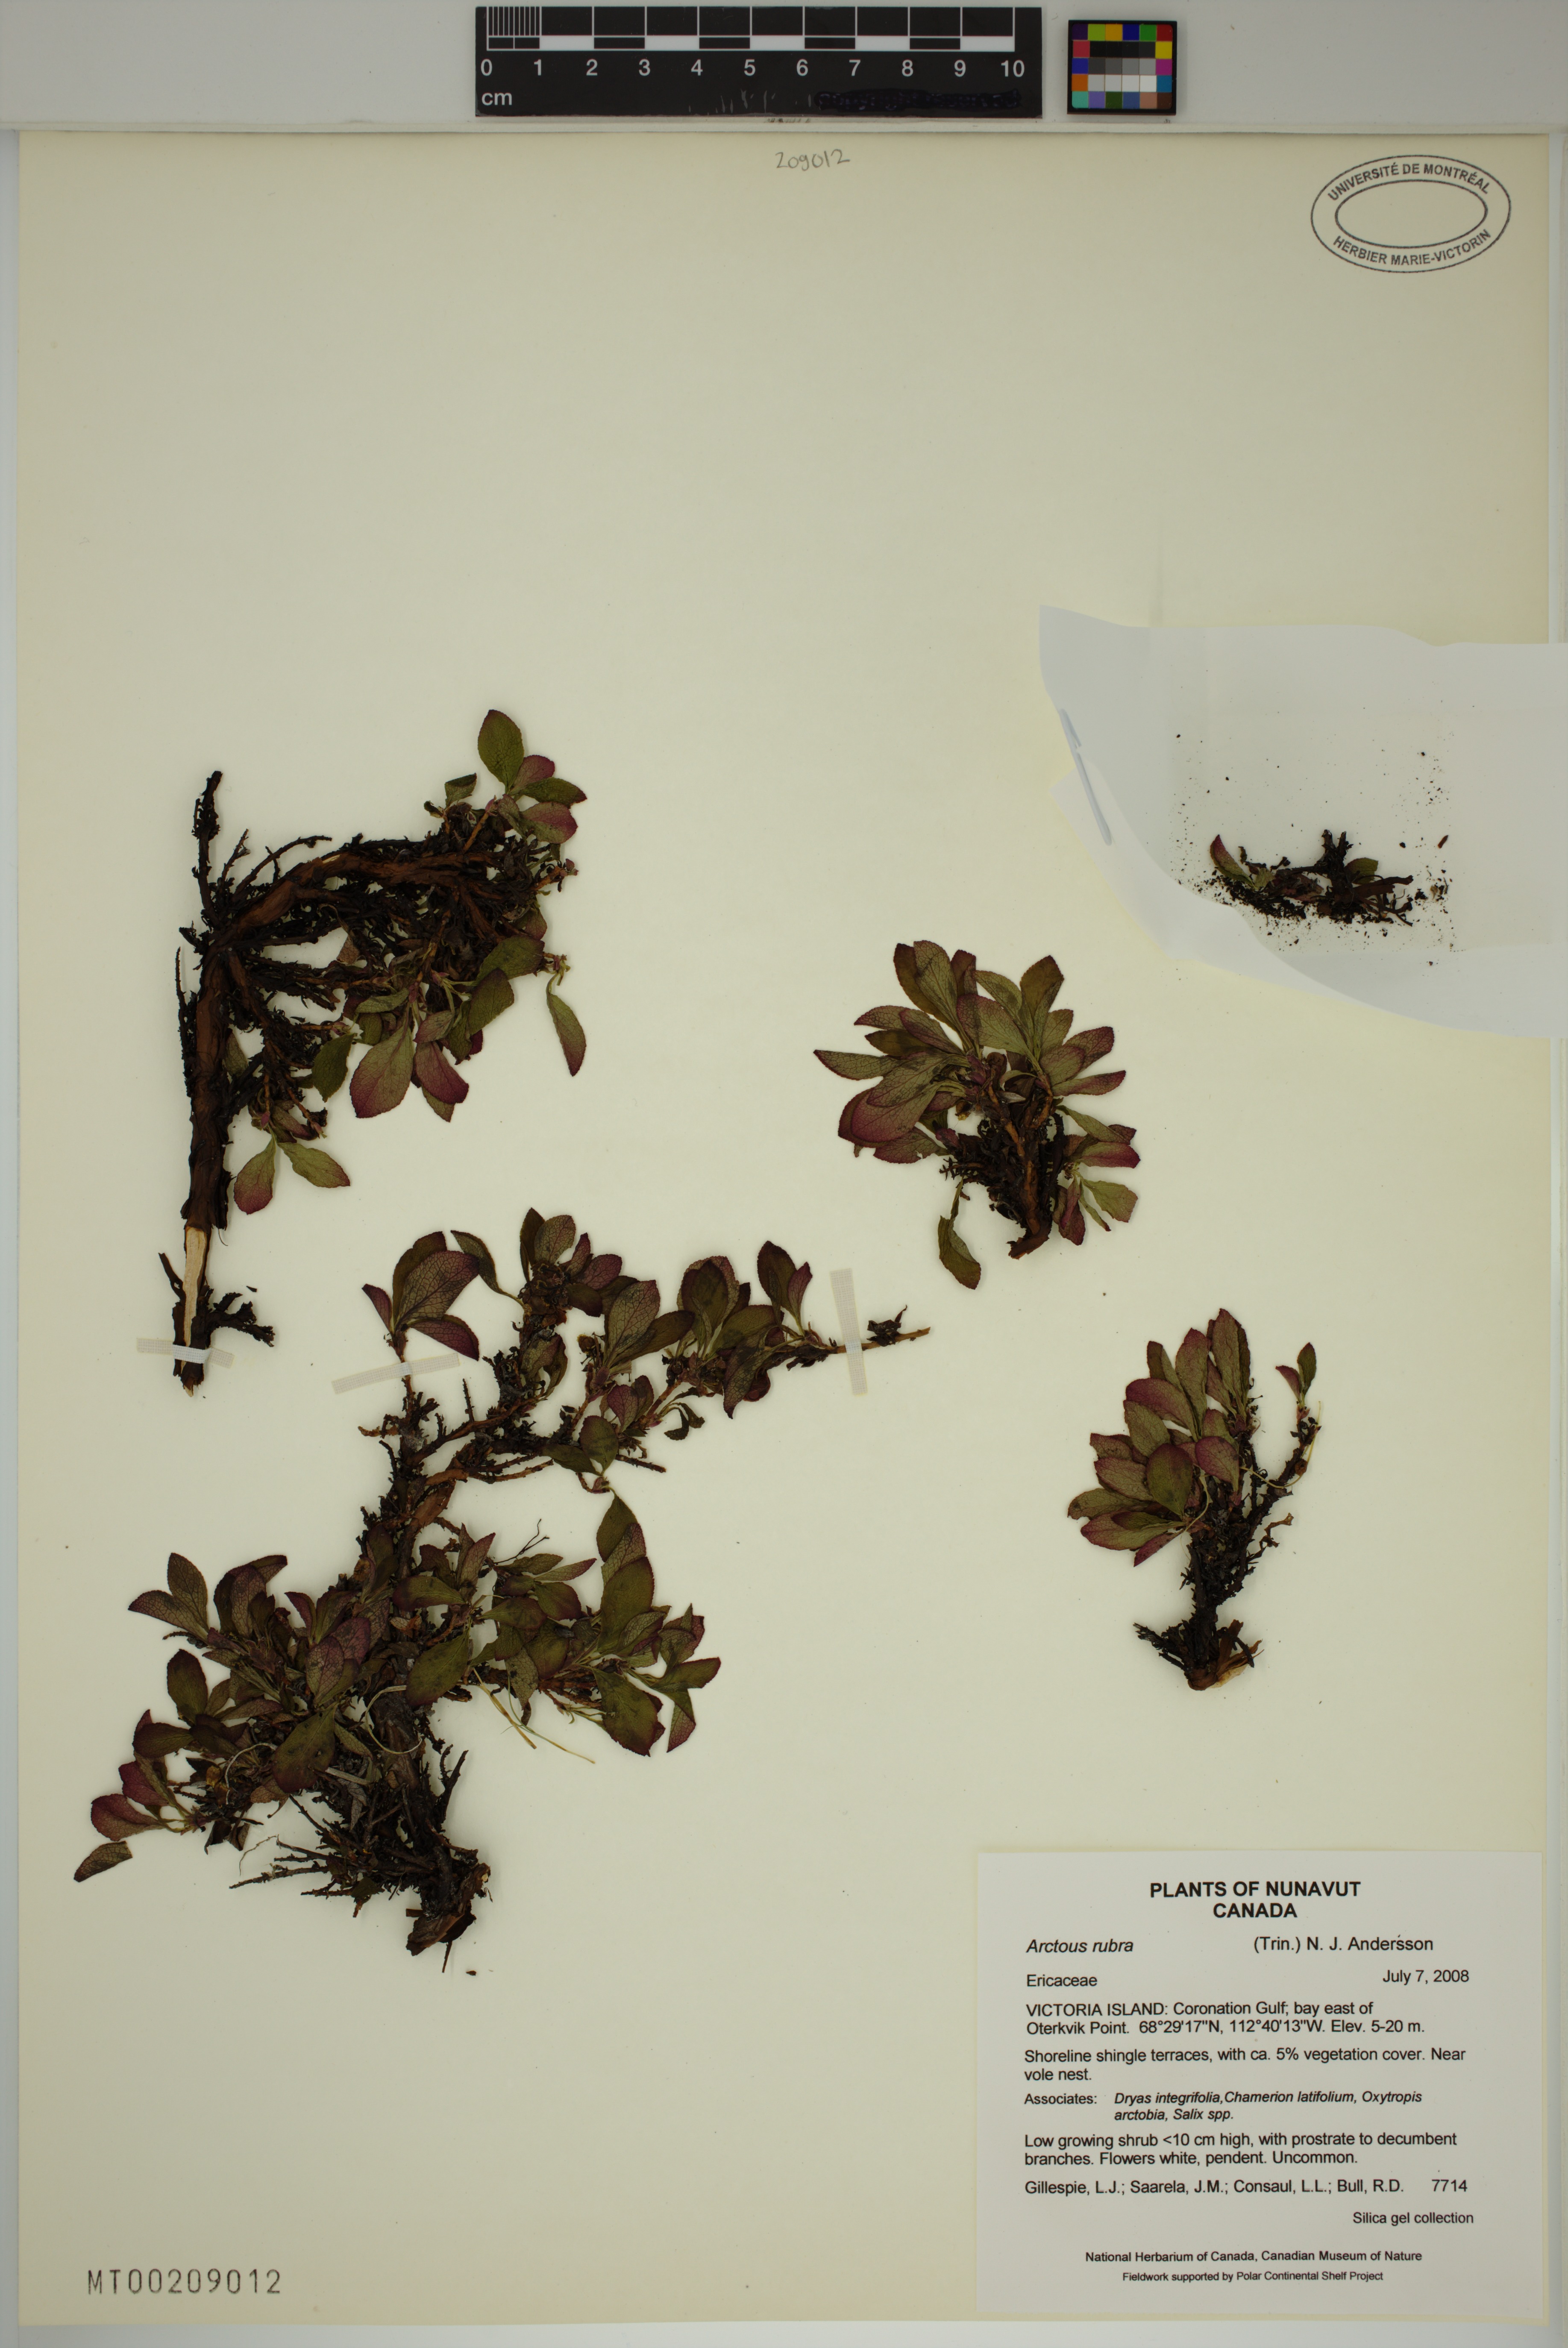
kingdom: Plantae
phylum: Tracheophyta
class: Magnoliopsida
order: Ericales
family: Ericaceae
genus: Arctostaphylos
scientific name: Arctostaphylos rubra
